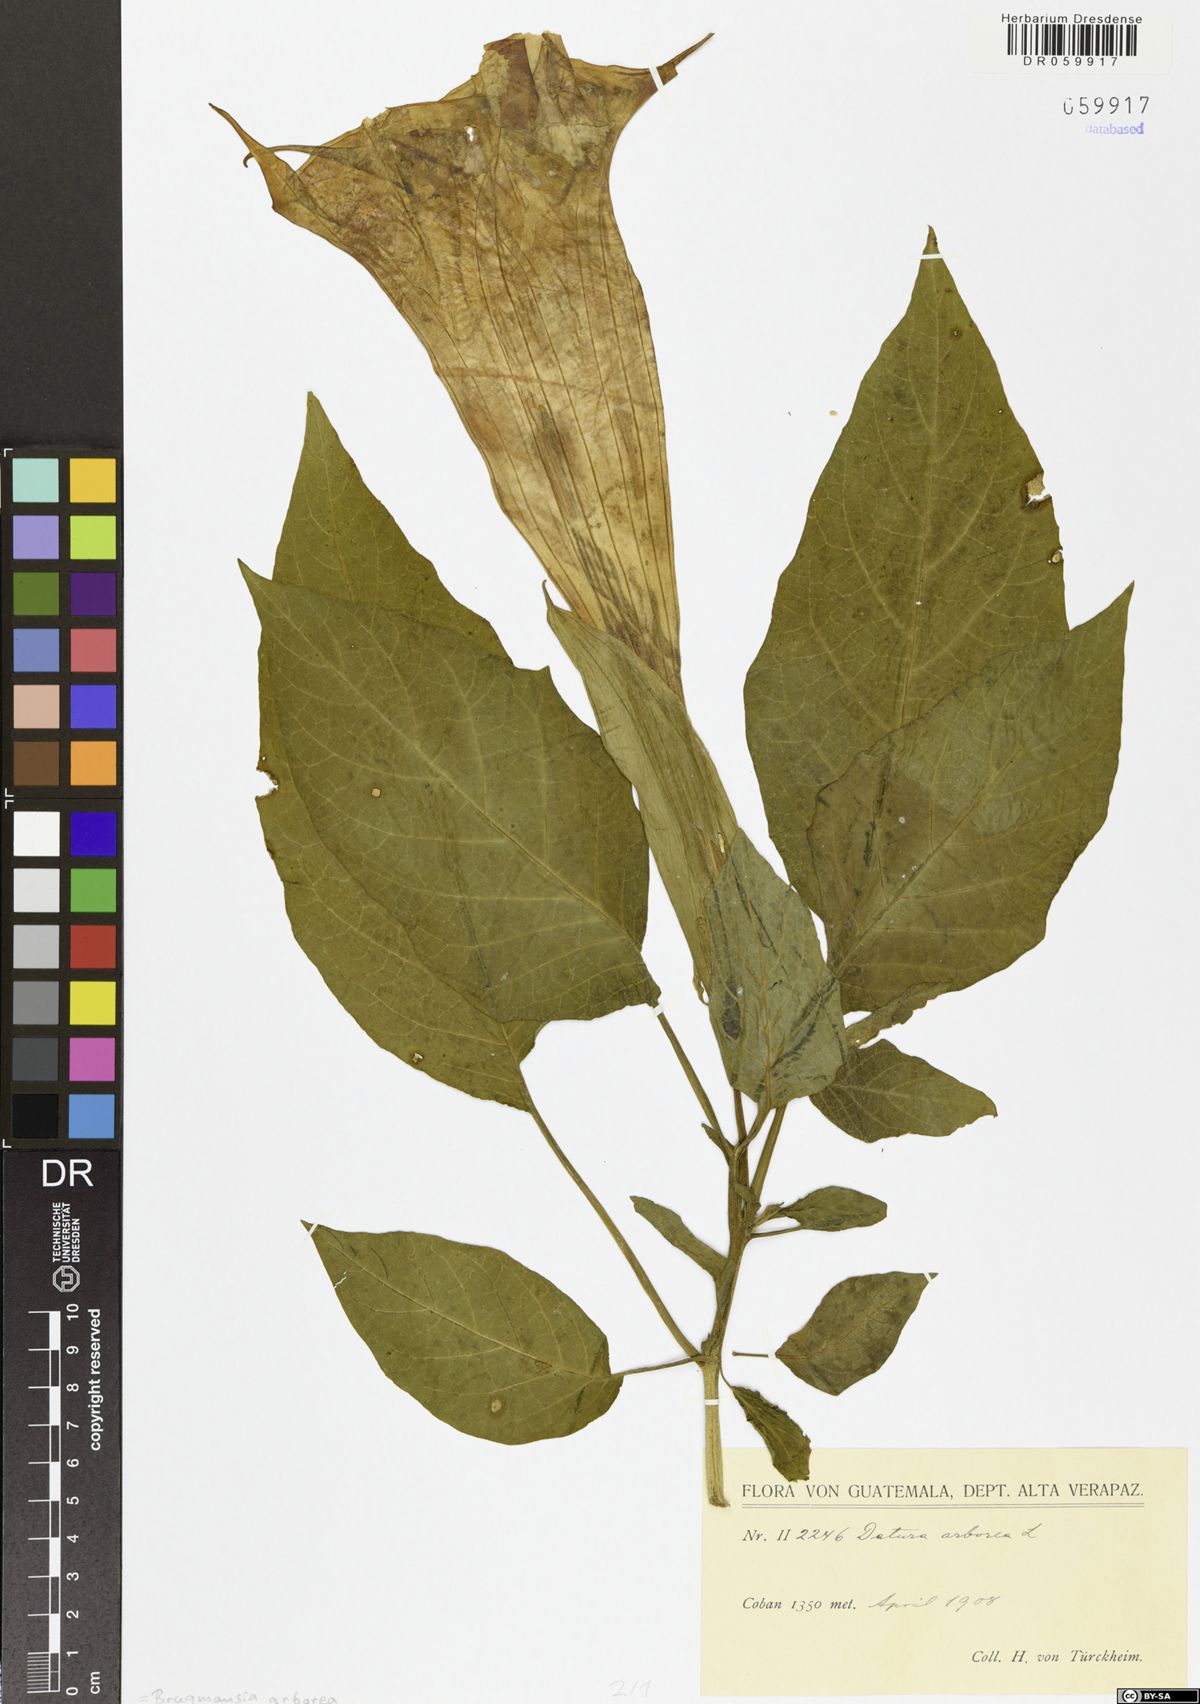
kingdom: Plantae
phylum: Tracheophyta
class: Magnoliopsida
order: Solanales
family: Solanaceae
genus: Brugmansia
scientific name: Brugmansia arborea
